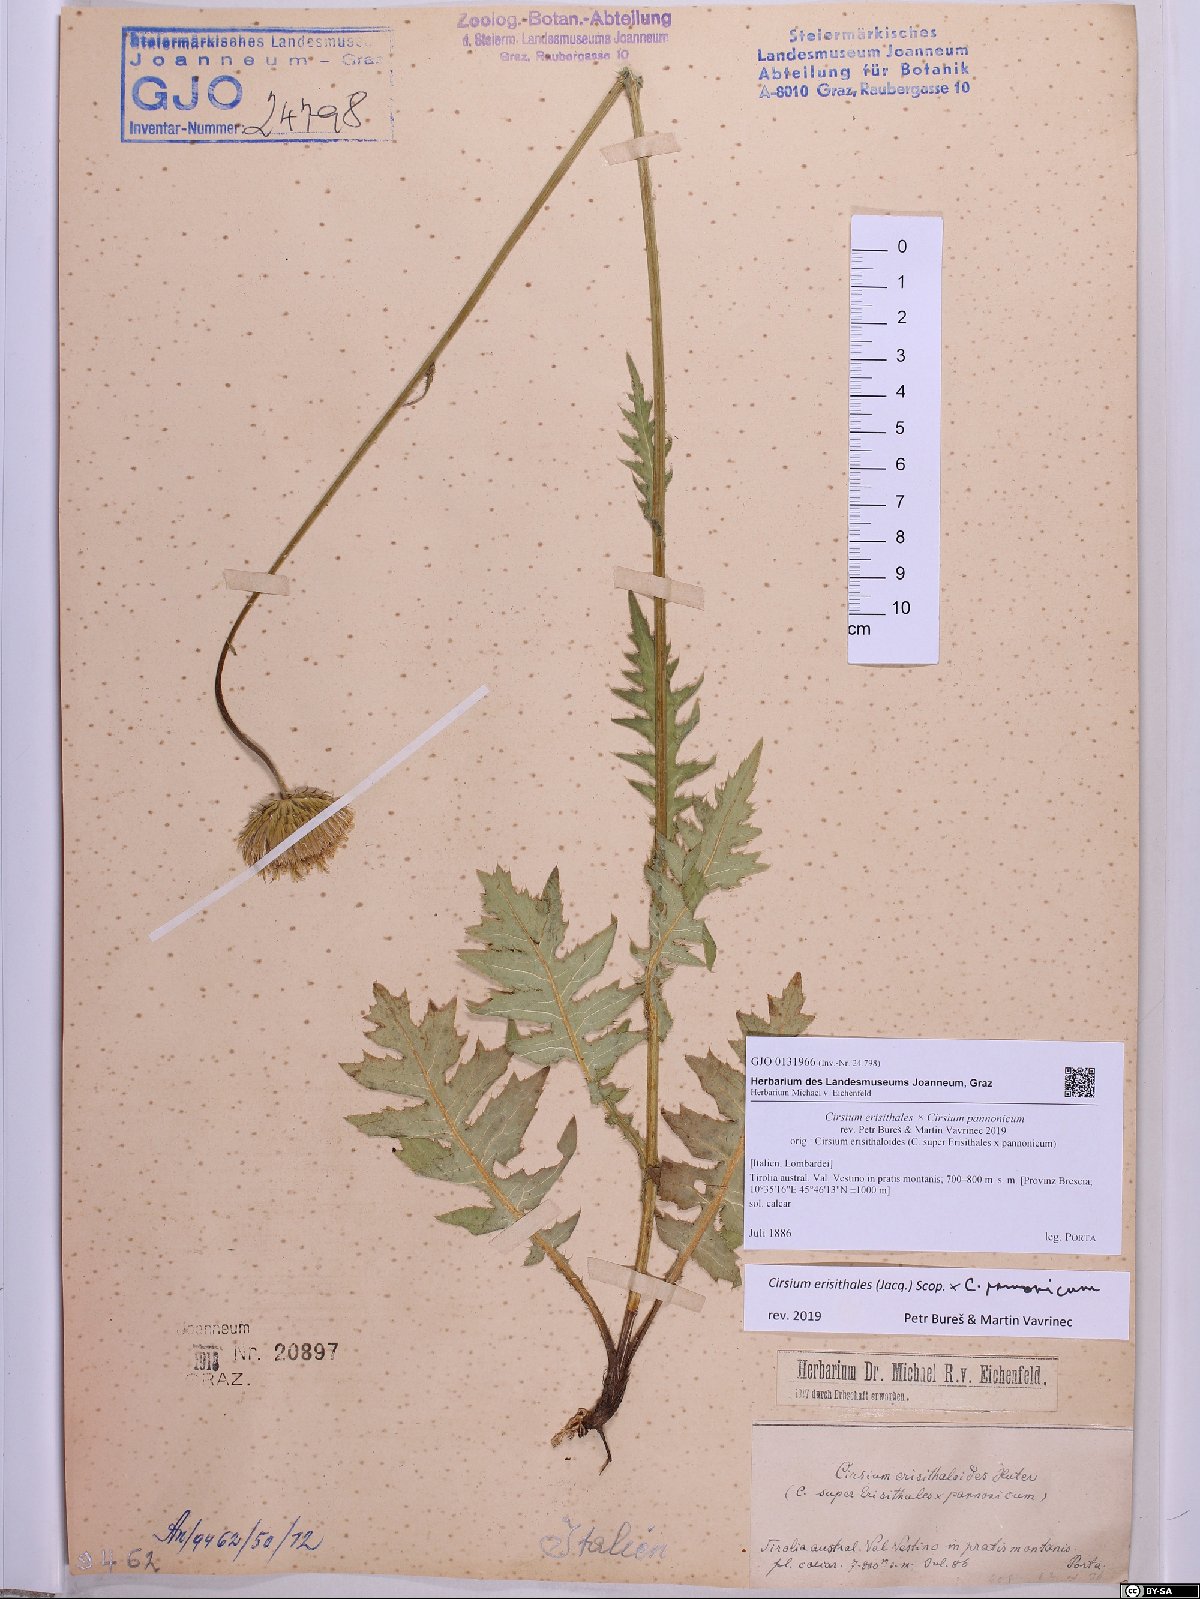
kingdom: Plantae
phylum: Tracheophyta
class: Magnoliopsida
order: Asterales
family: Asteraceae
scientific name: Asteraceae
